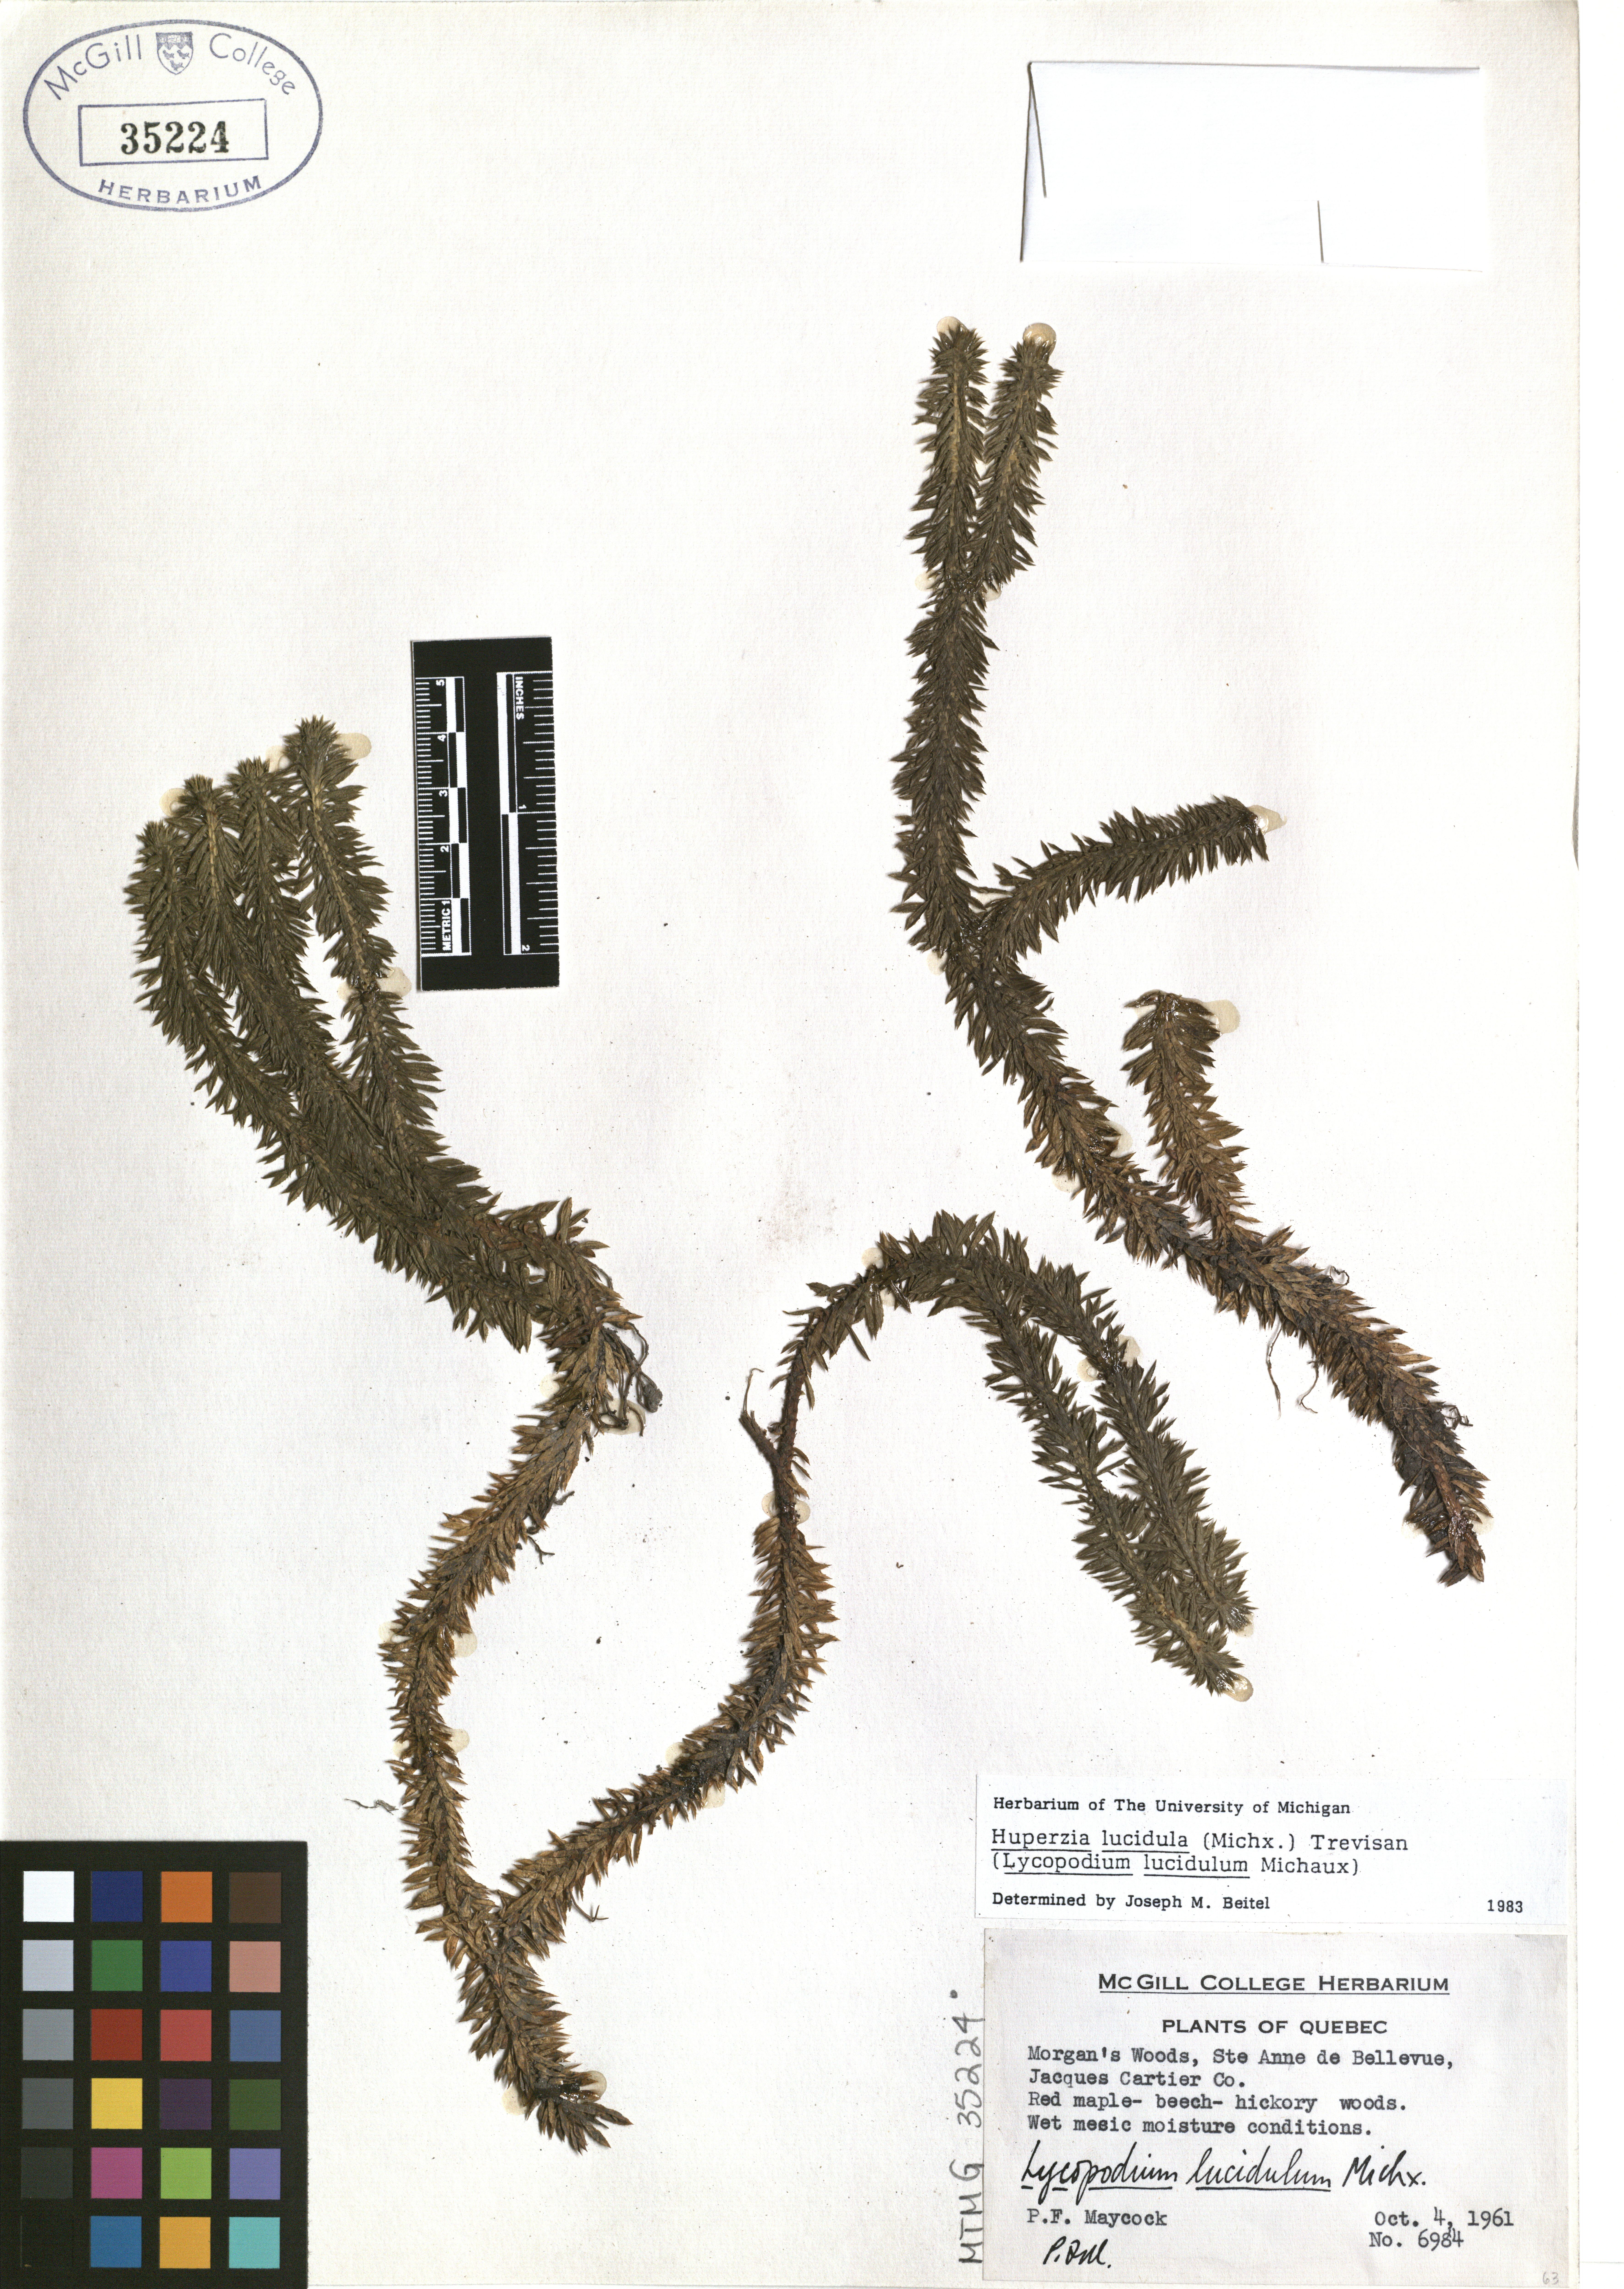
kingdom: Plantae
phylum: Tracheophyta
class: Lycopodiopsida
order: Lycopodiales
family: Lycopodiaceae
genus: Huperzia
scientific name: Huperzia lucidula
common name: Shining clubmoss
